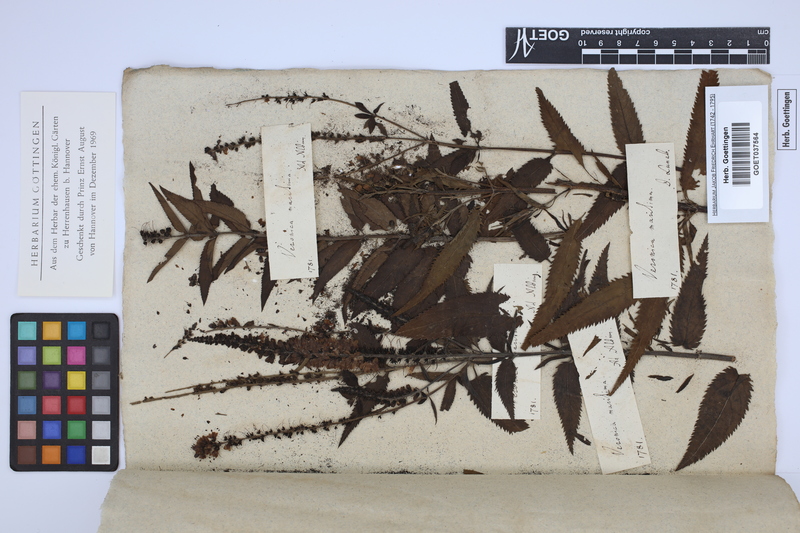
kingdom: Plantae
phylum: Tracheophyta
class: Magnoliopsida
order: Lamiales
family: Plantaginaceae
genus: Veronica
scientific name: Veronica maritima
